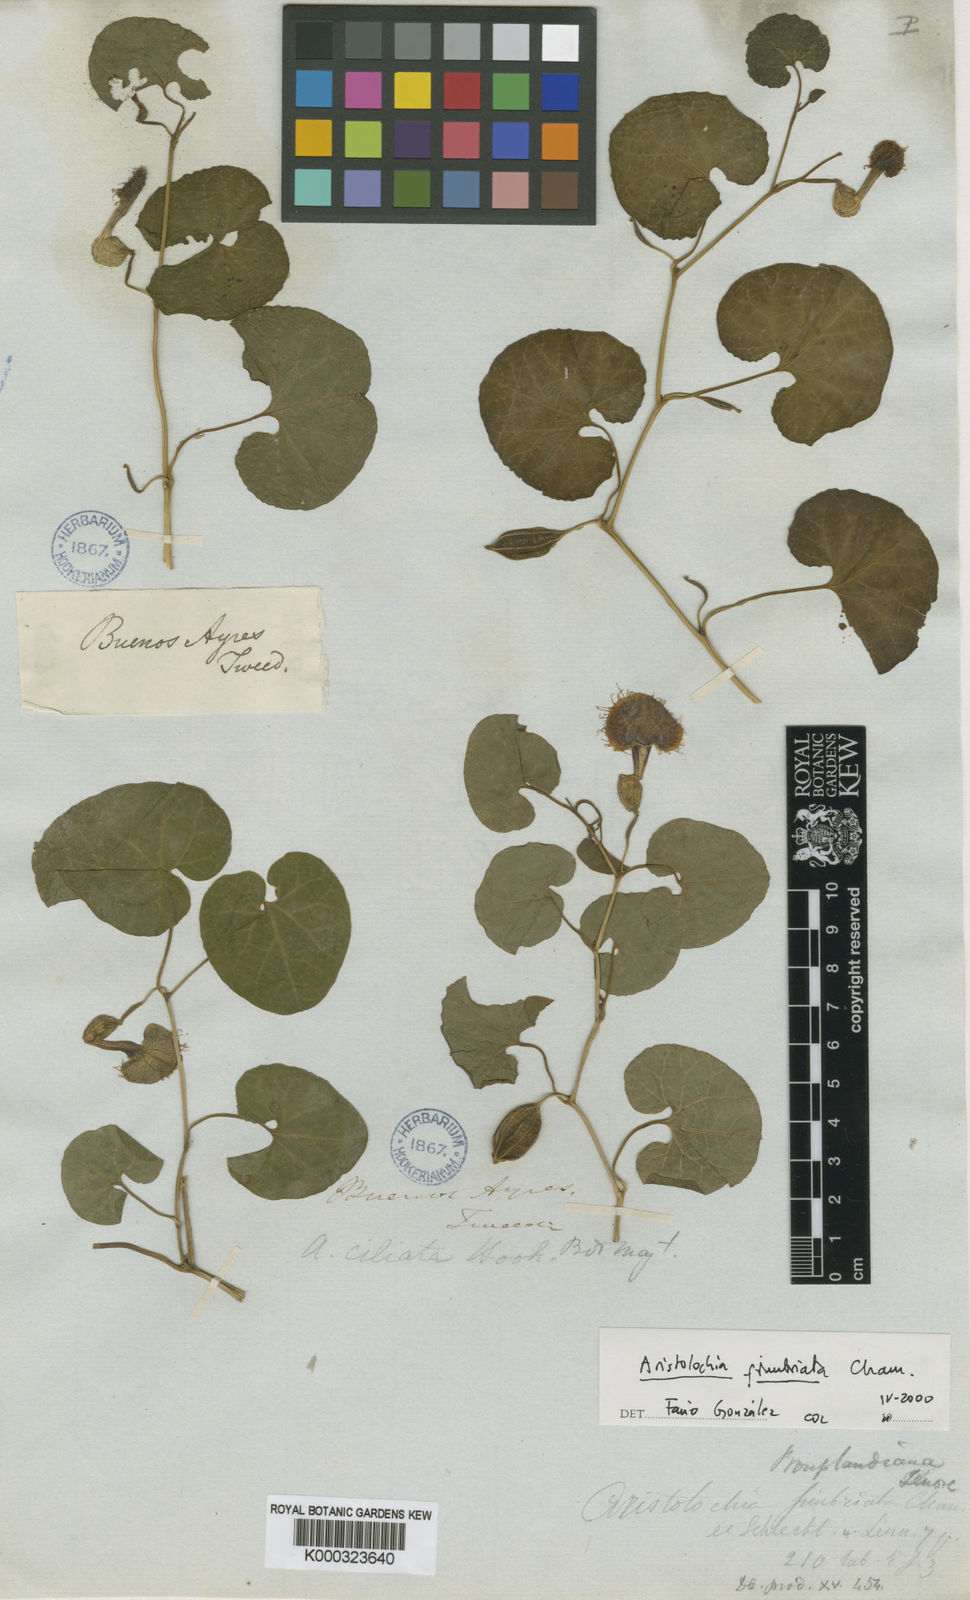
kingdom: Plantae
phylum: Tracheophyta
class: Magnoliopsida
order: Piperales
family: Aristolochiaceae
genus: Aristolochia
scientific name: Aristolochia fimbriata
